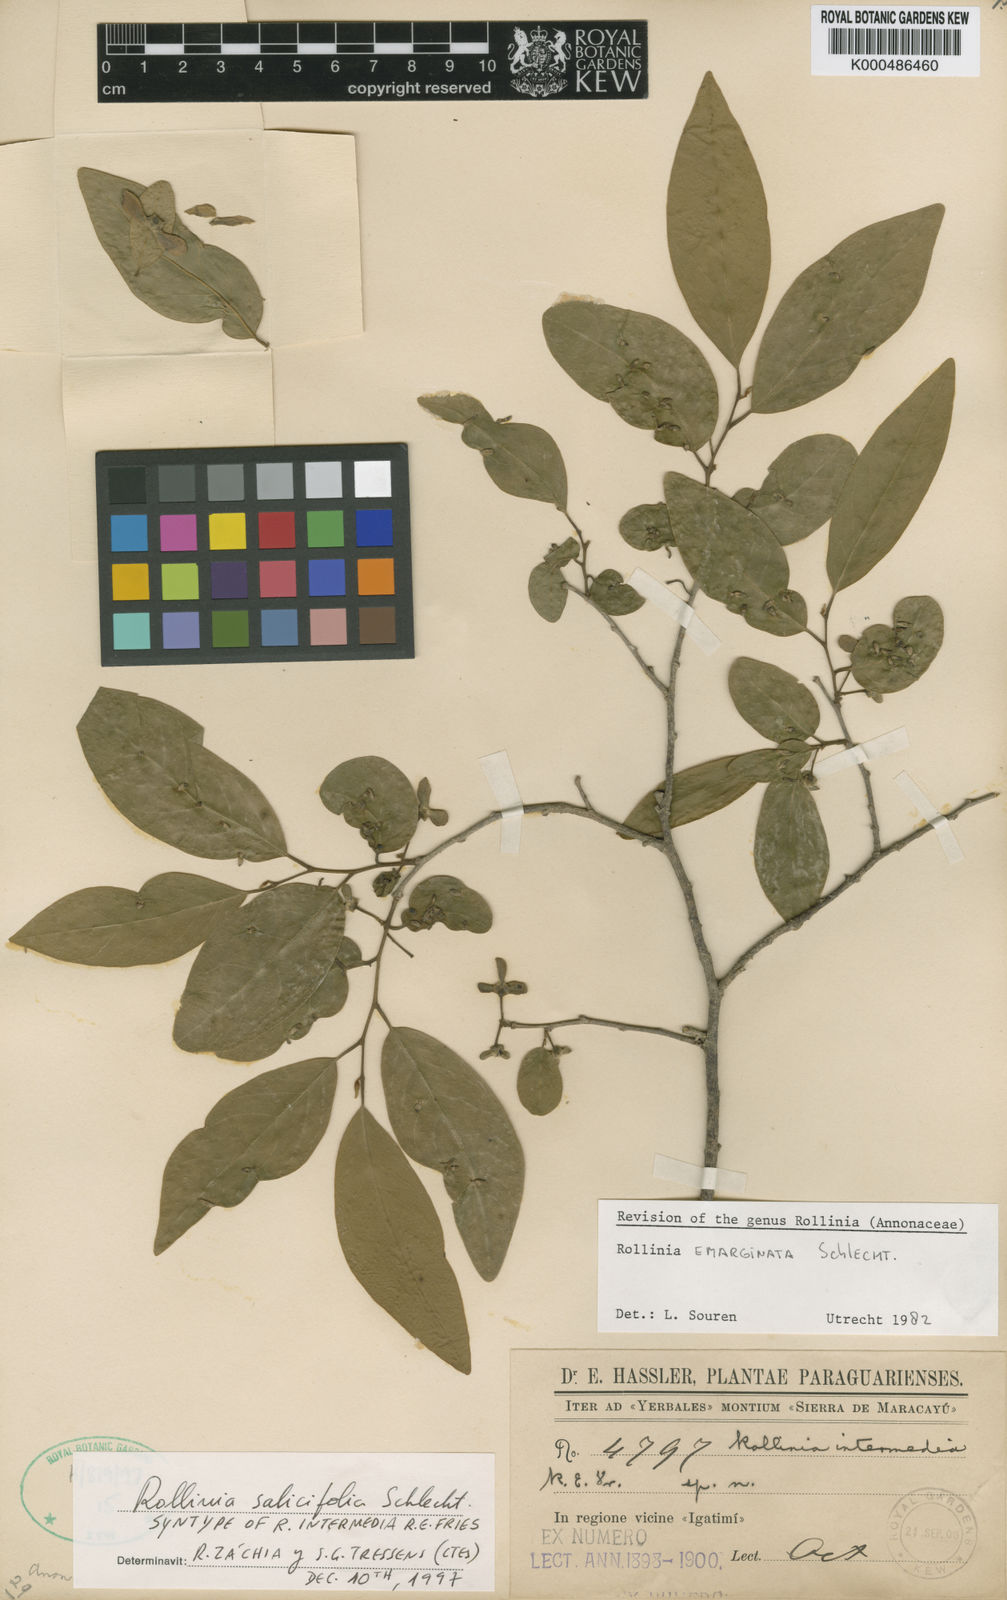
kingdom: Plantae
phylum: Tracheophyta
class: Magnoliopsida
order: Magnoliales
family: Annonaceae
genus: Annona
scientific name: Annona neosalicifolia
